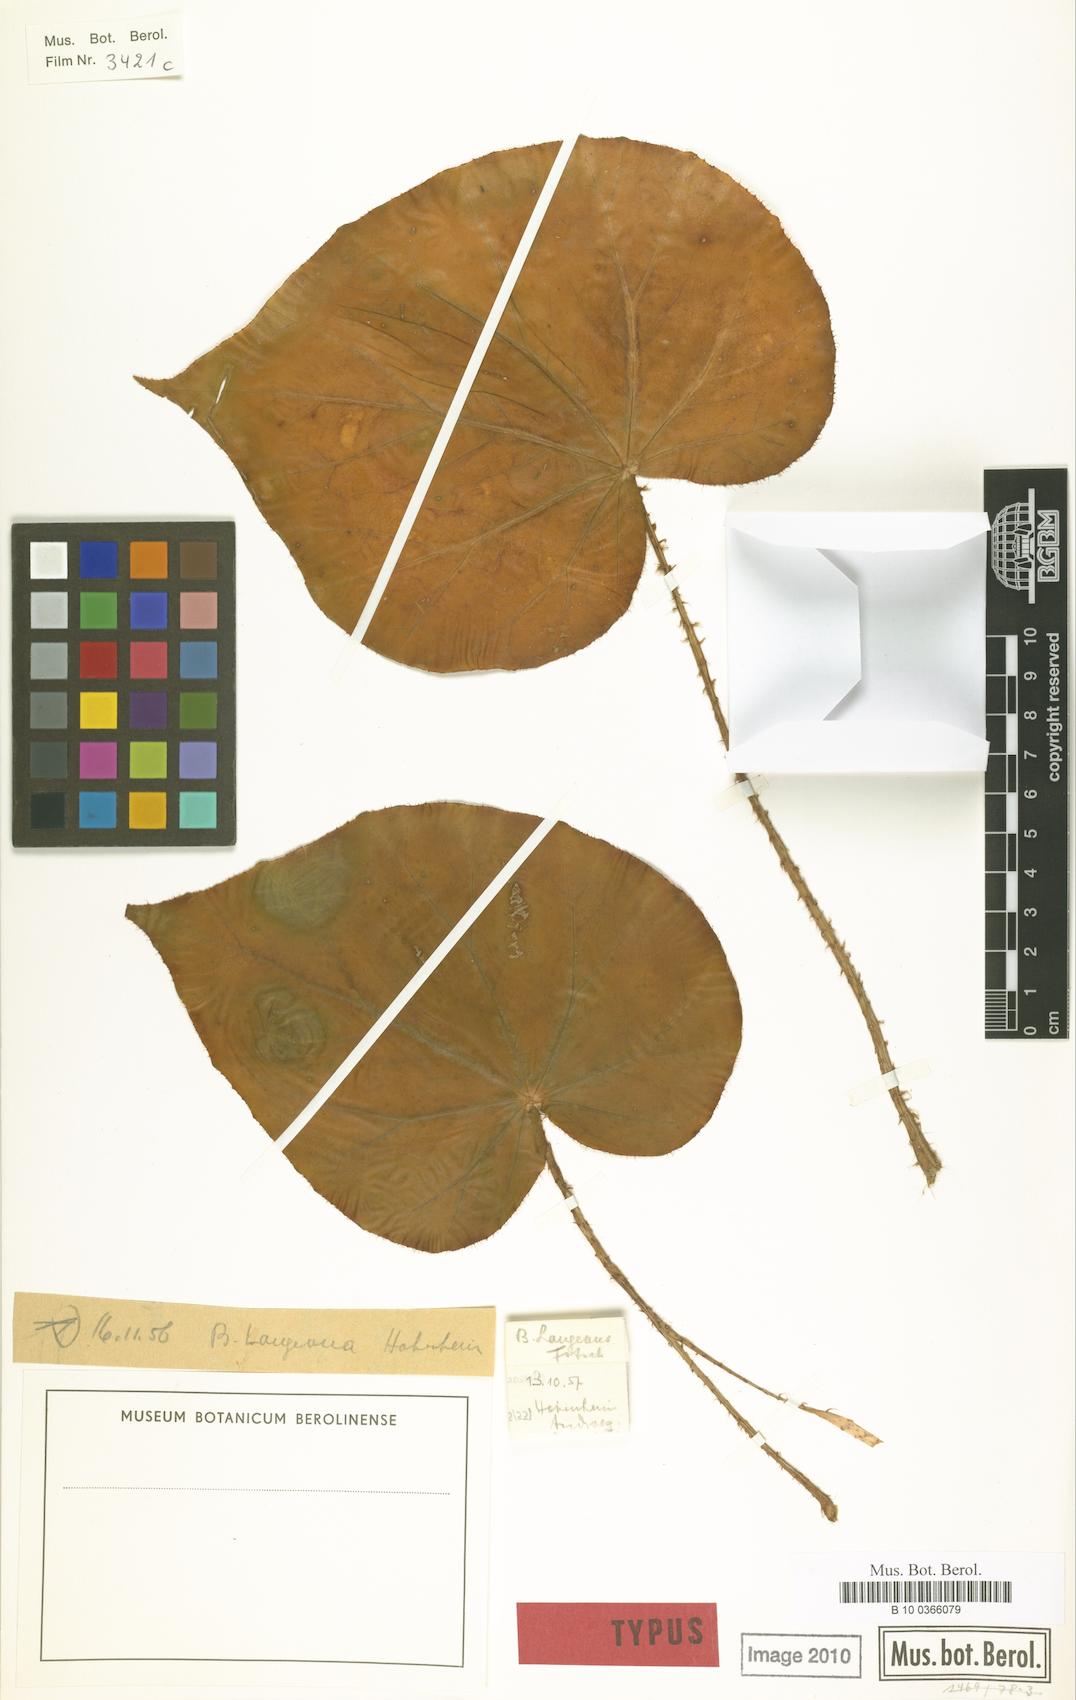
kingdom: Plantae
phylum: Tracheophyta
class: Magnoliopsida
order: Cucurbitales
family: Begoniaceae
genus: Begonia
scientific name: Begonia langeana
